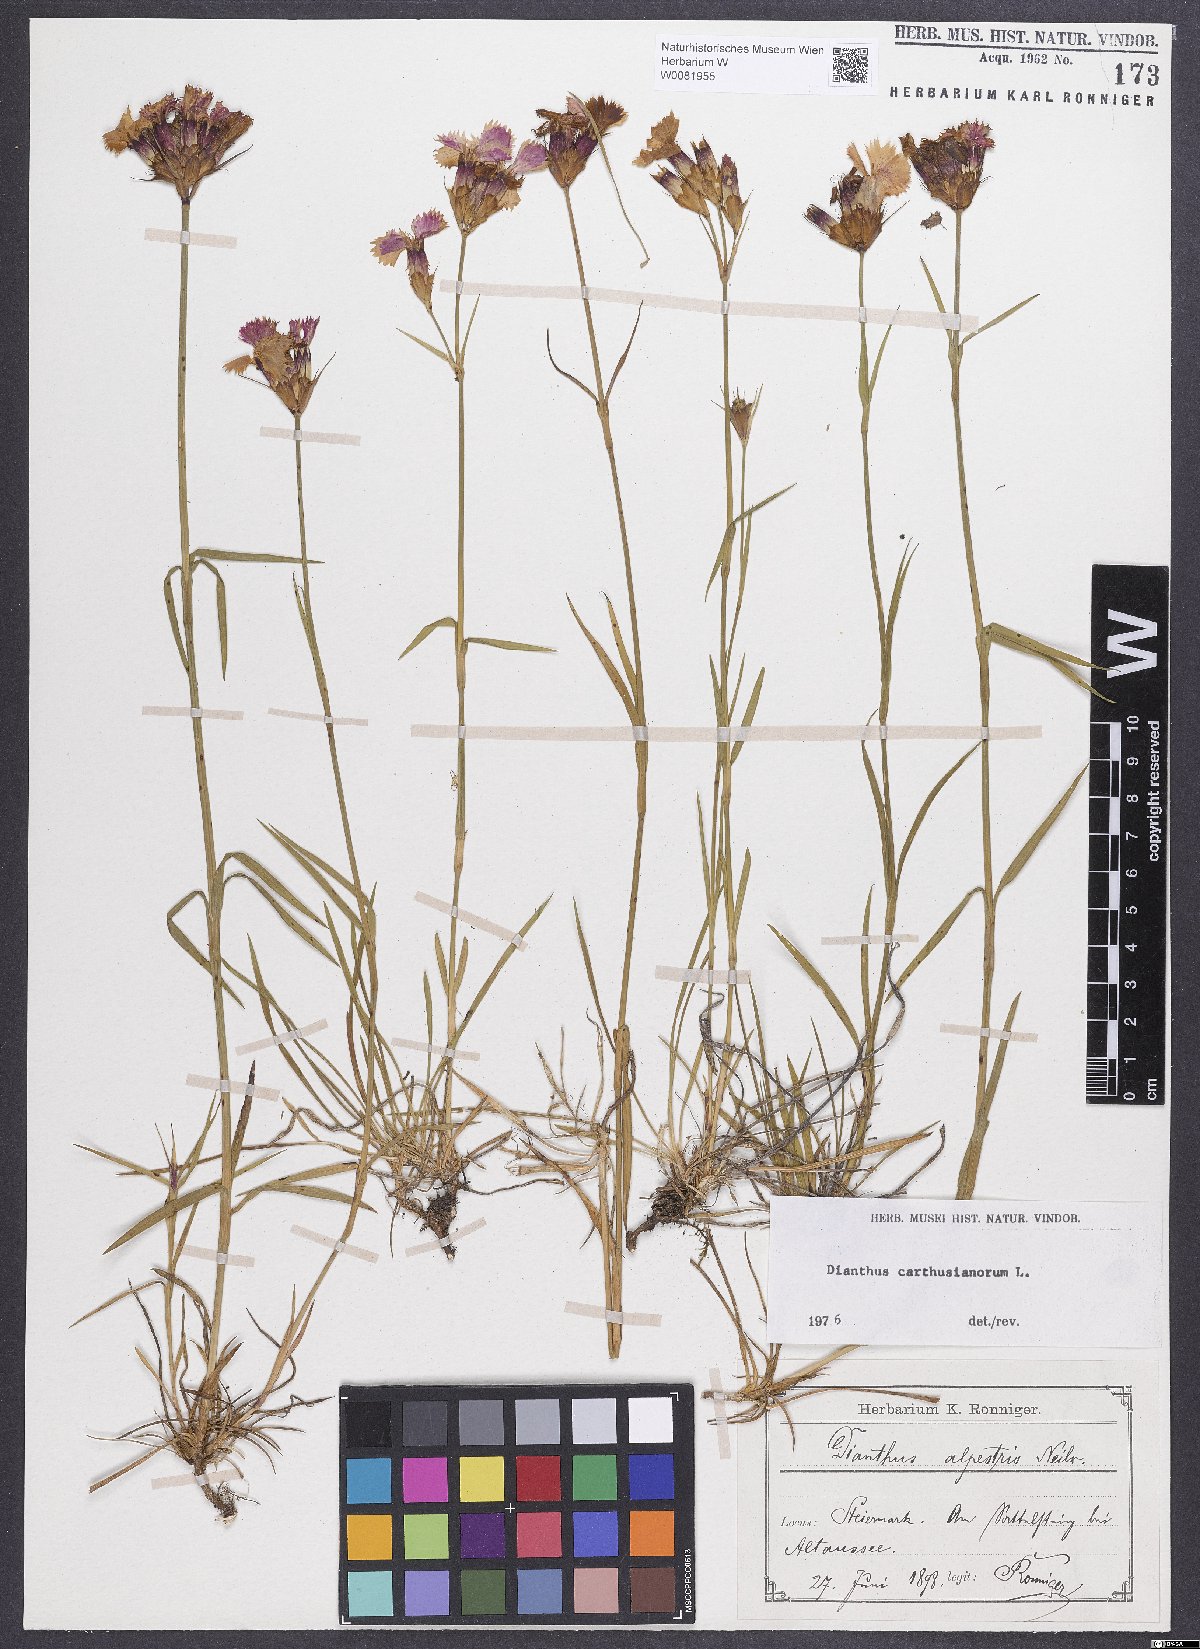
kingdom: Plantae
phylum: Tracheophyta
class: Magnoliopsida
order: Caryophyllales
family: Caryophyllaceae
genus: Dianthus
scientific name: Dianthus carthusianorum
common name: Carthusian pink
